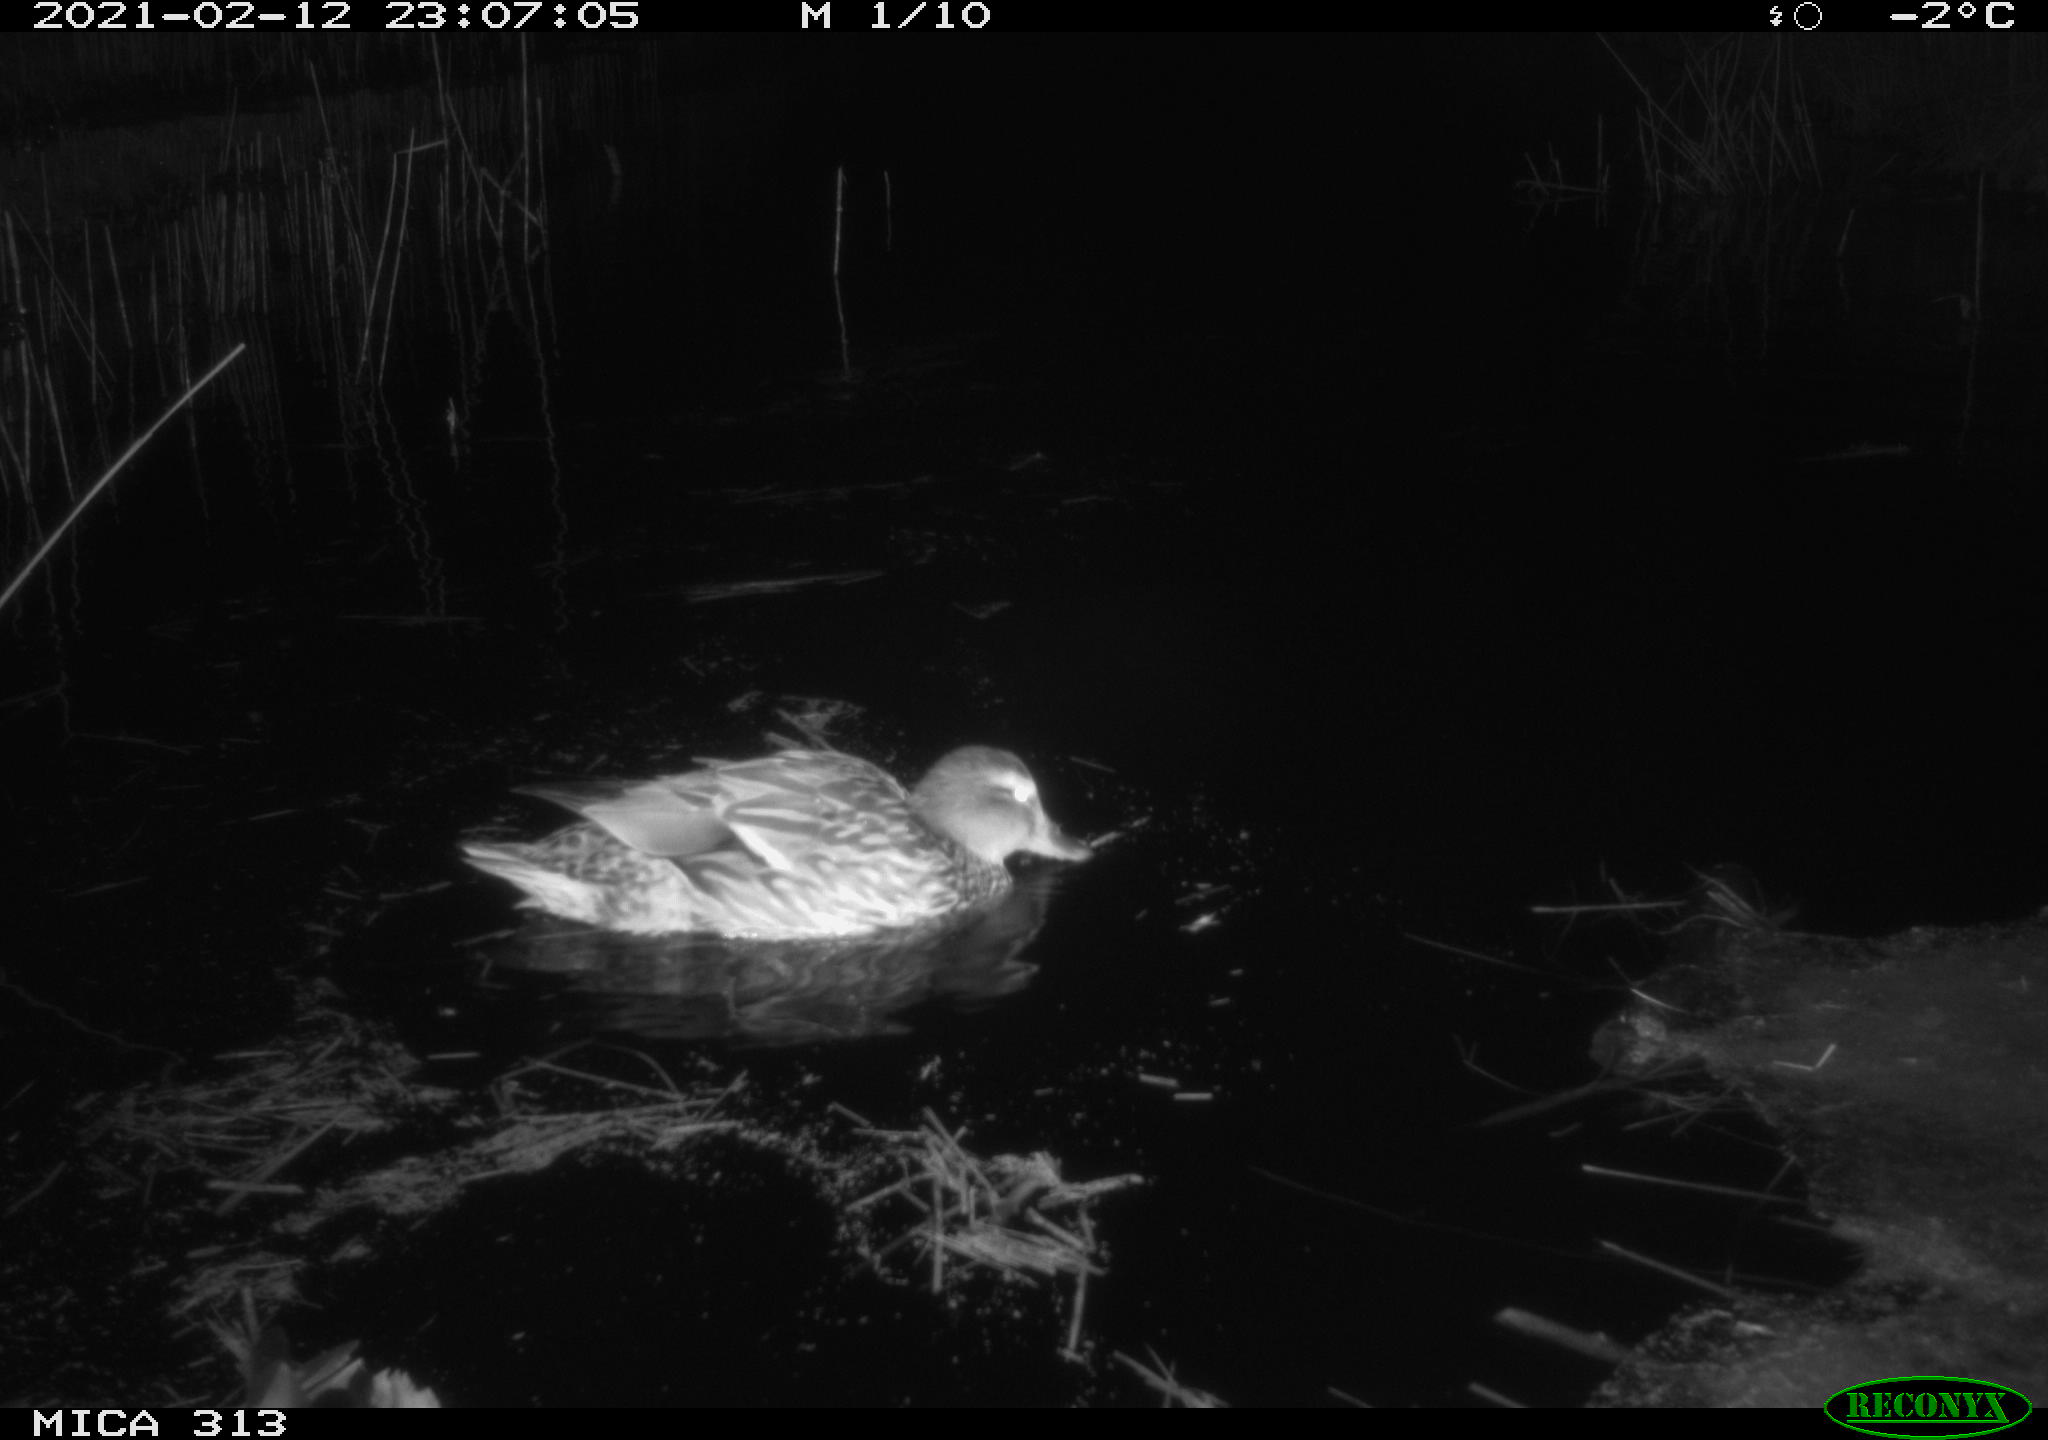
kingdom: Animalia
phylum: Chordata
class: Aves
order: Anseriformes
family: Anatidae
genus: Anas
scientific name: Anas
